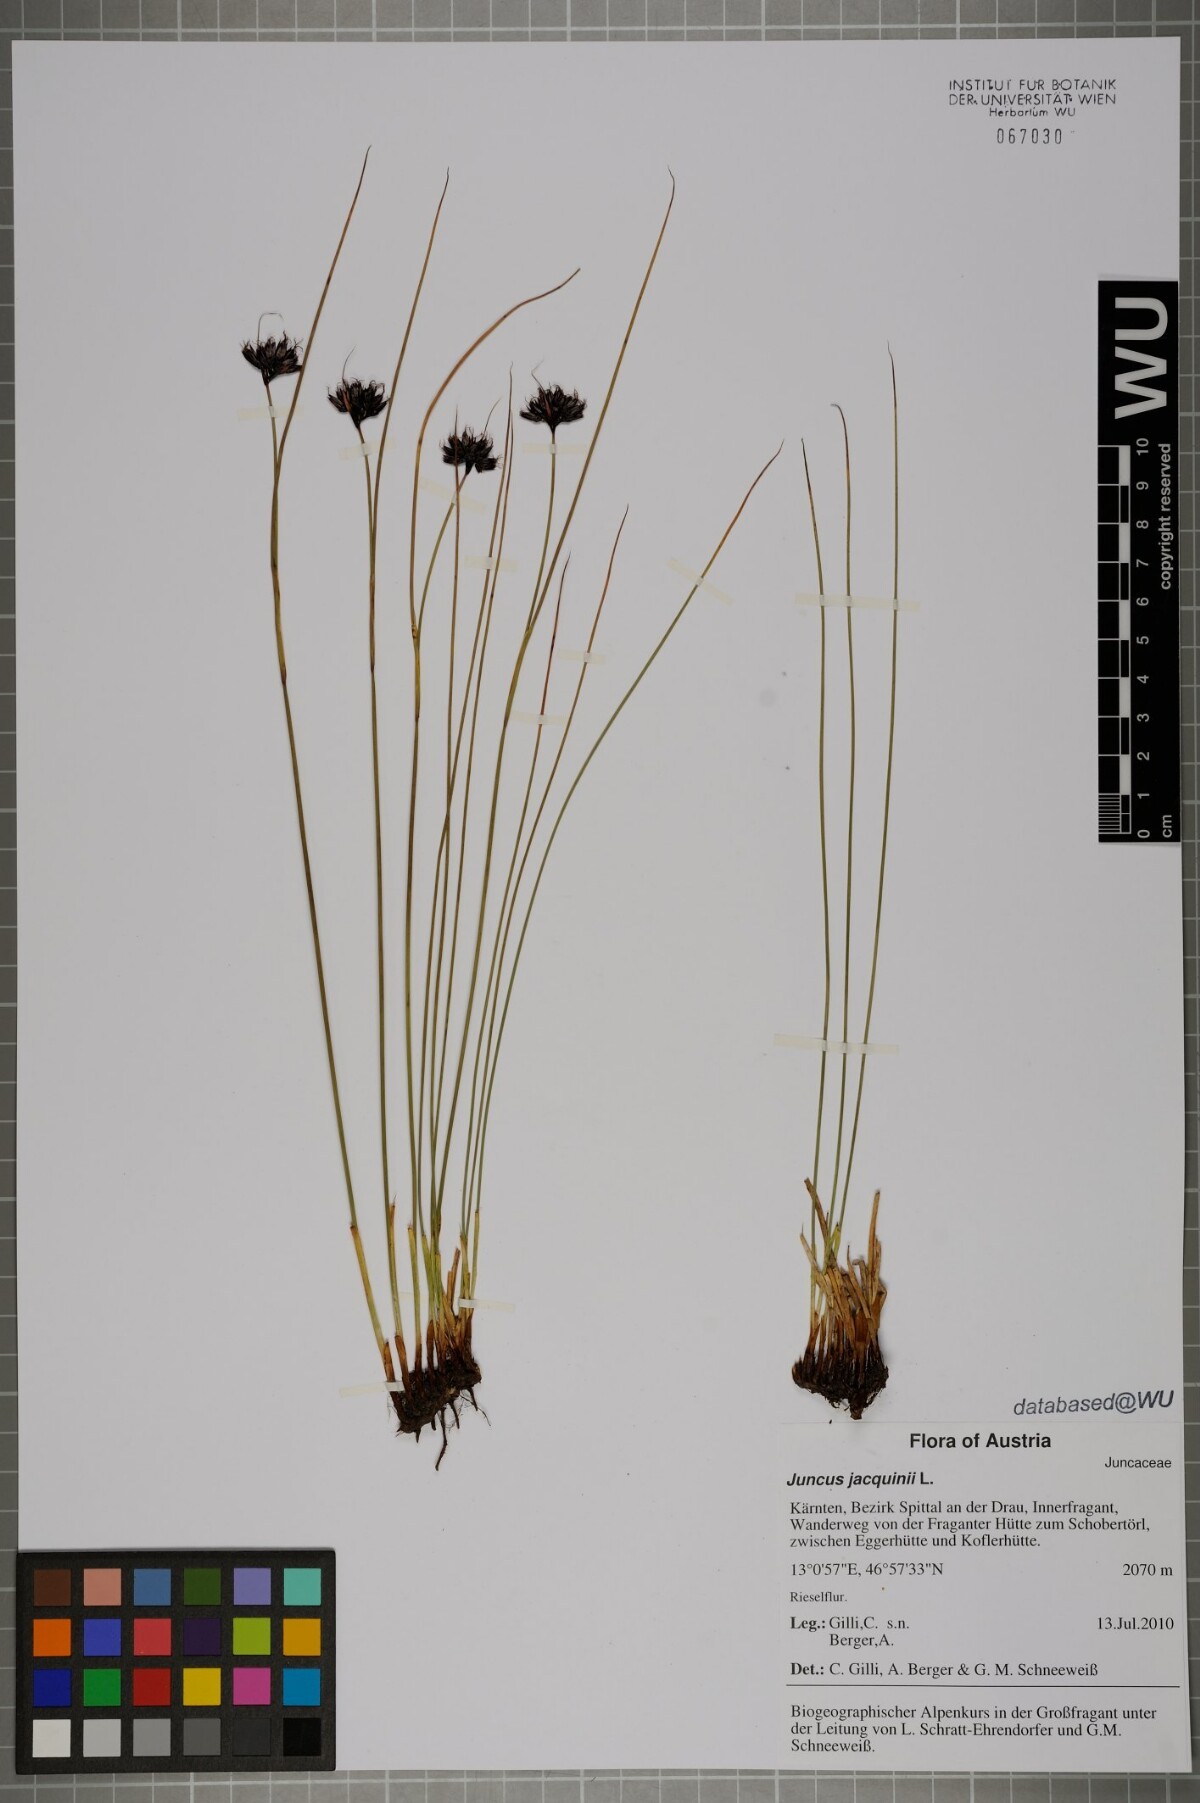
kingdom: Plantae
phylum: Tracheophyta
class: Liliopsida
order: Poales
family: Juncaceae
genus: Juncus
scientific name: Juncus jacquinii
